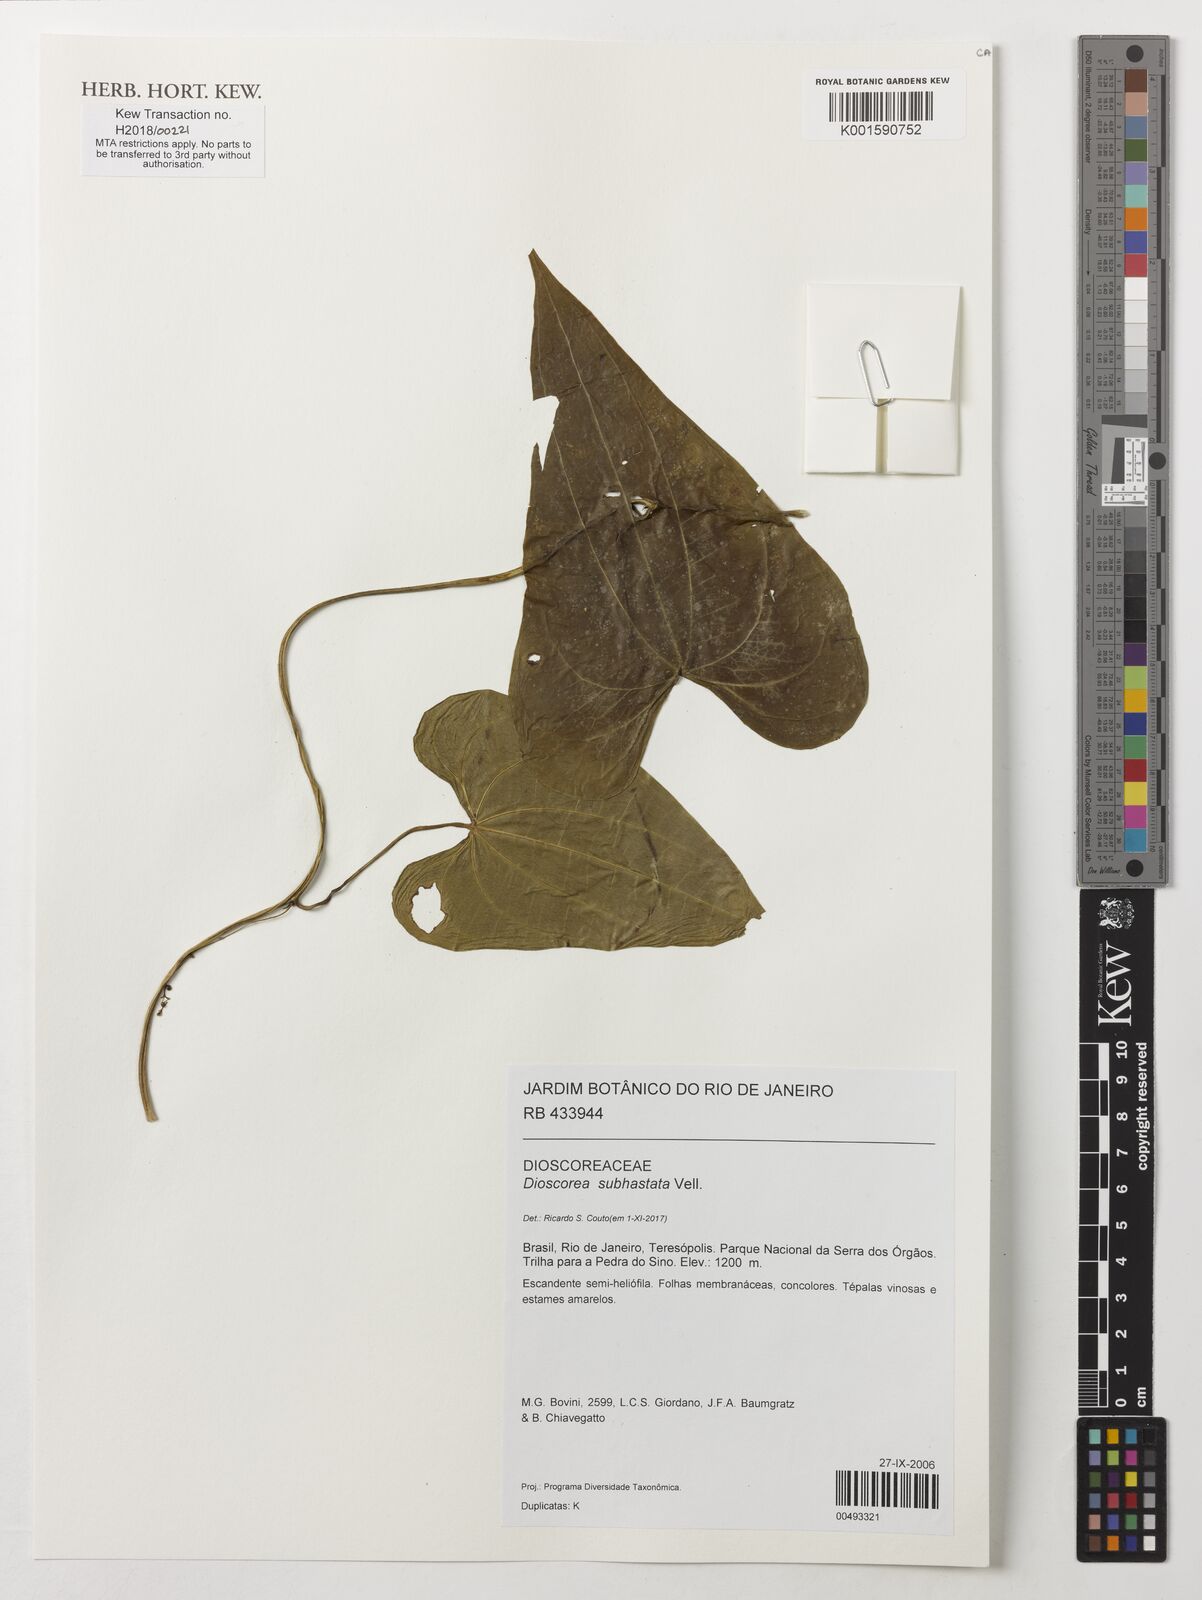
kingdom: Plantae
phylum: Tracheophyta
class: Liliopsida
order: Dioscoreales
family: Dioscoreaceae
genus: Dioscorea
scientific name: Dioscorea subhastata
